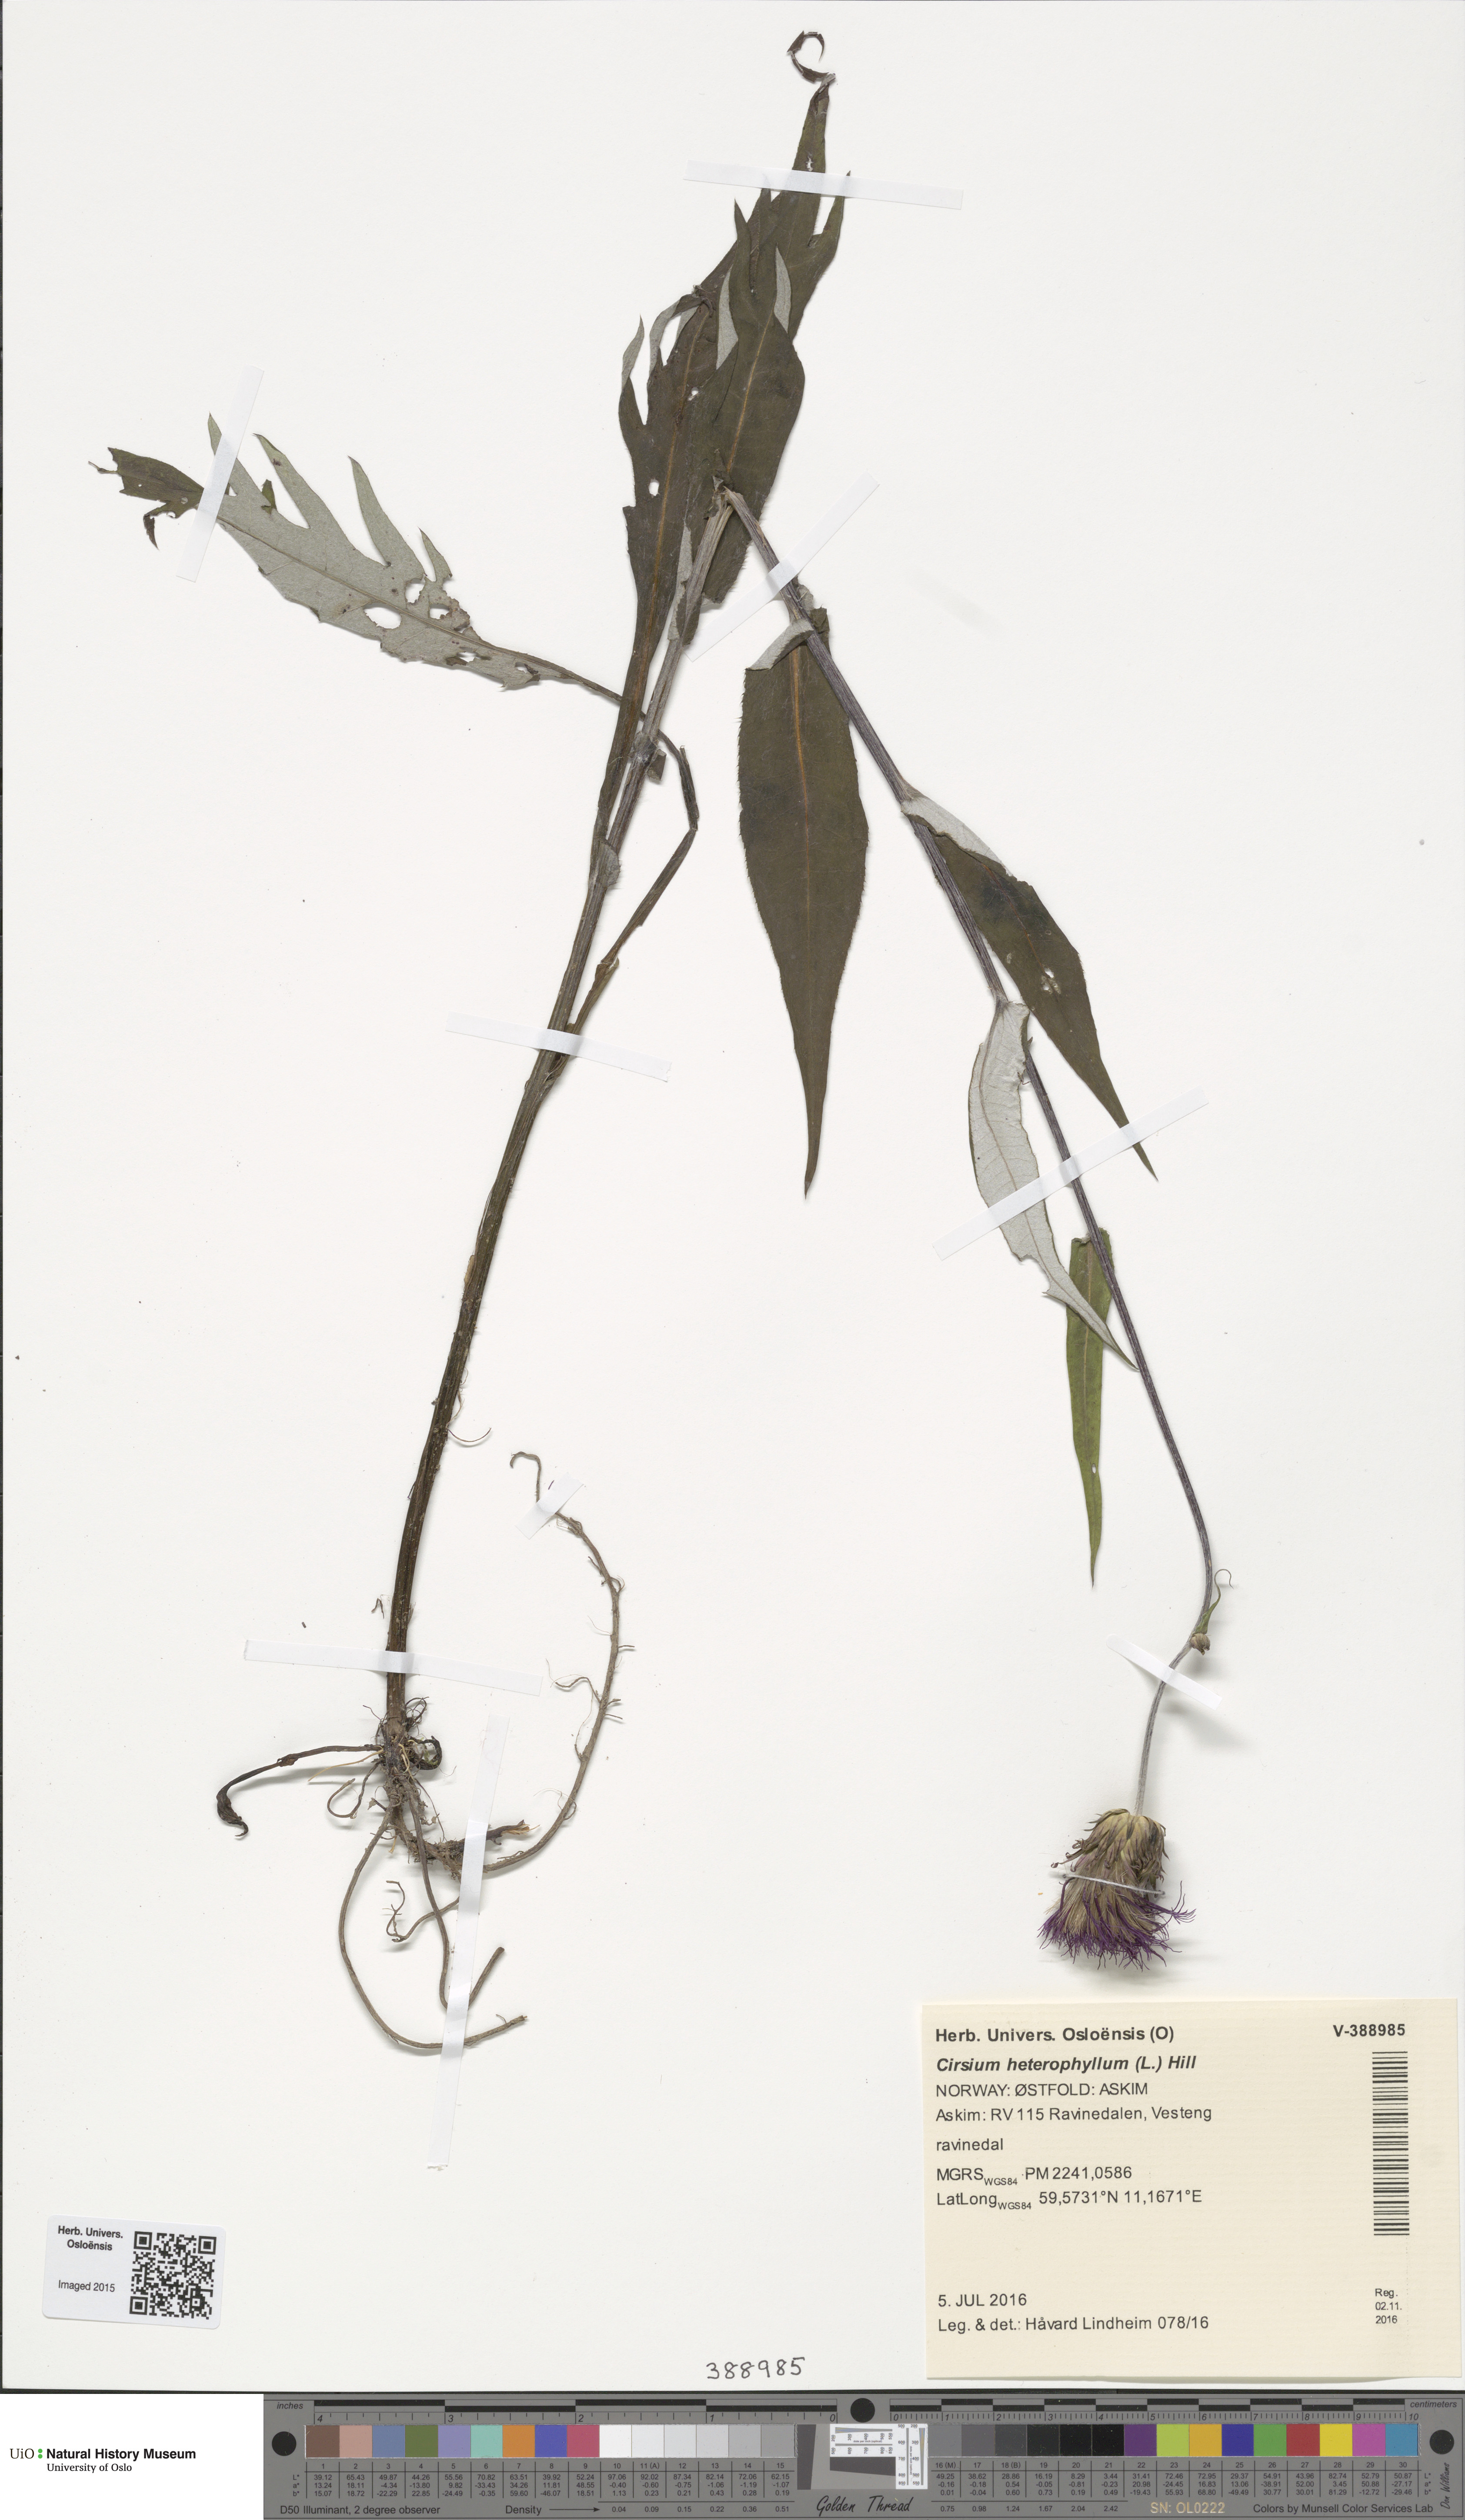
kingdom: Plantae
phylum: Tracheophyta
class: Magnoliopsida
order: Asterales
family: Asteraceae
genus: Cirsium
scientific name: Cirsium heterophyllum
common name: Melancholy thistle
